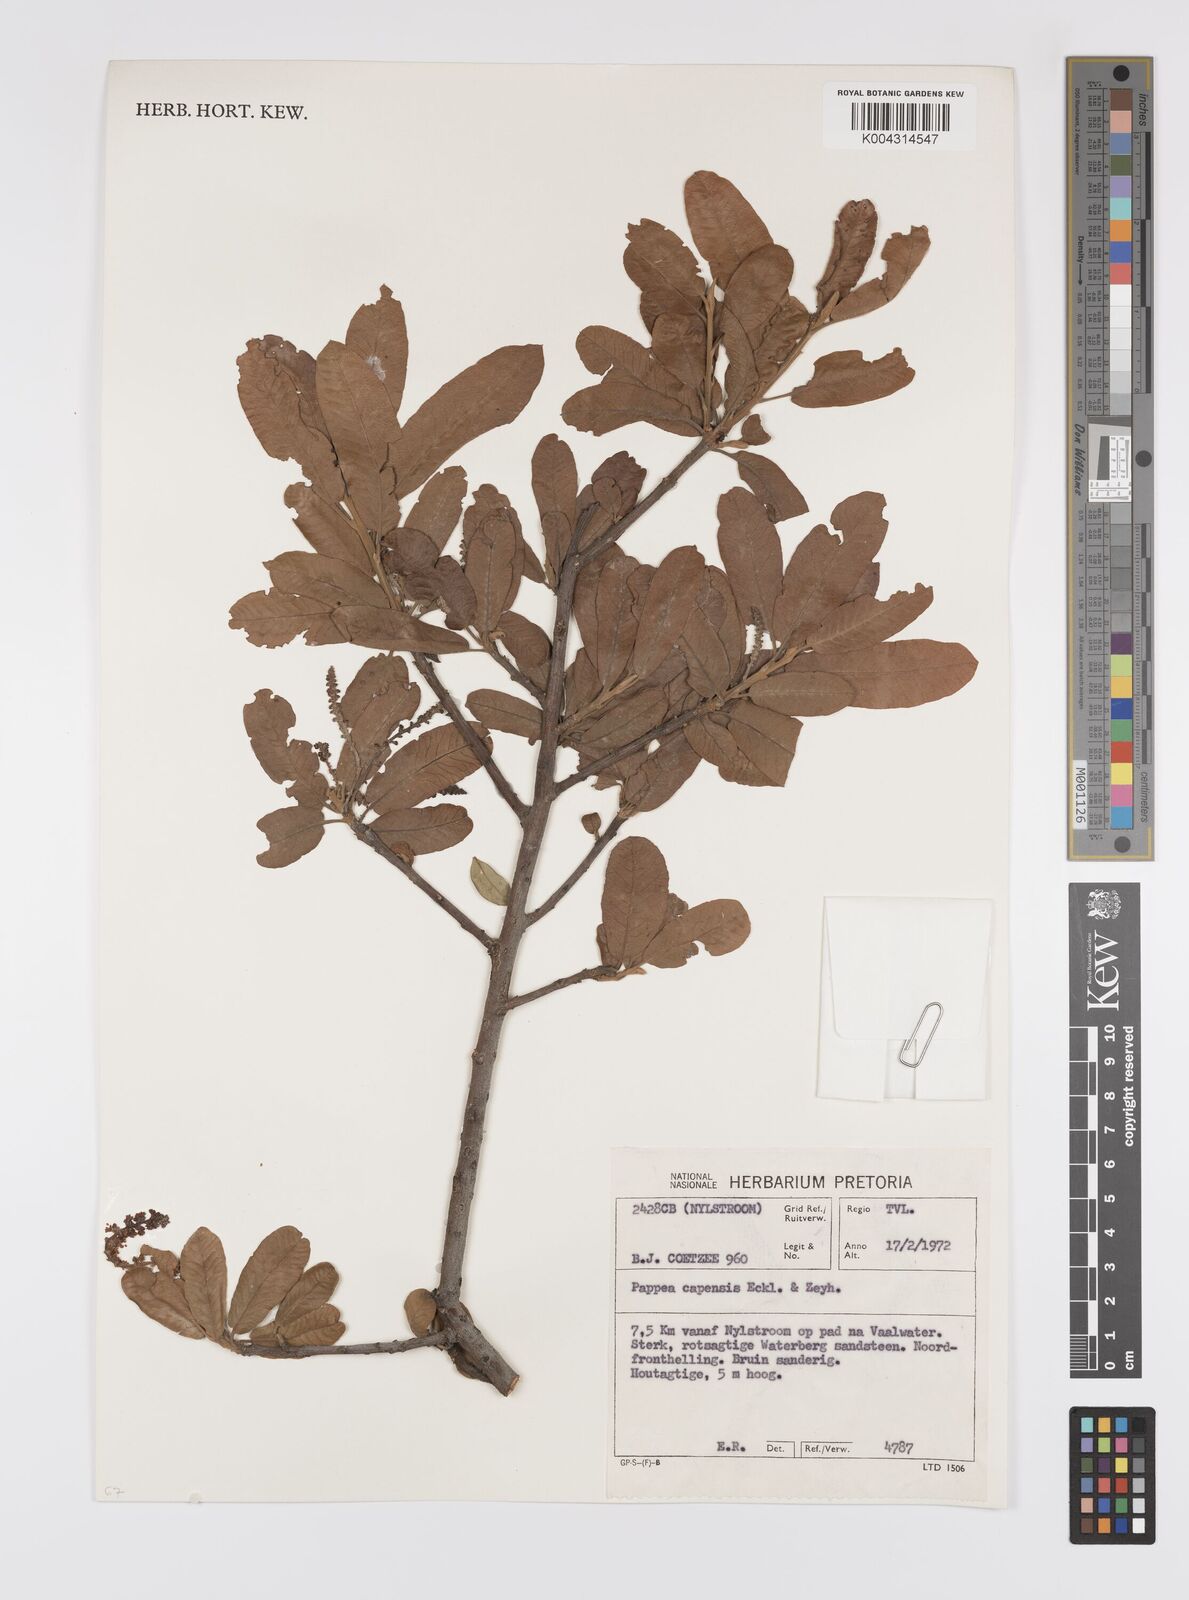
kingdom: Plantae
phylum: Tracheophyta
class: Magnoliopsida
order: Sapindales
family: Sapindaceae
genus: Pappea
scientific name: Pappea capensis
